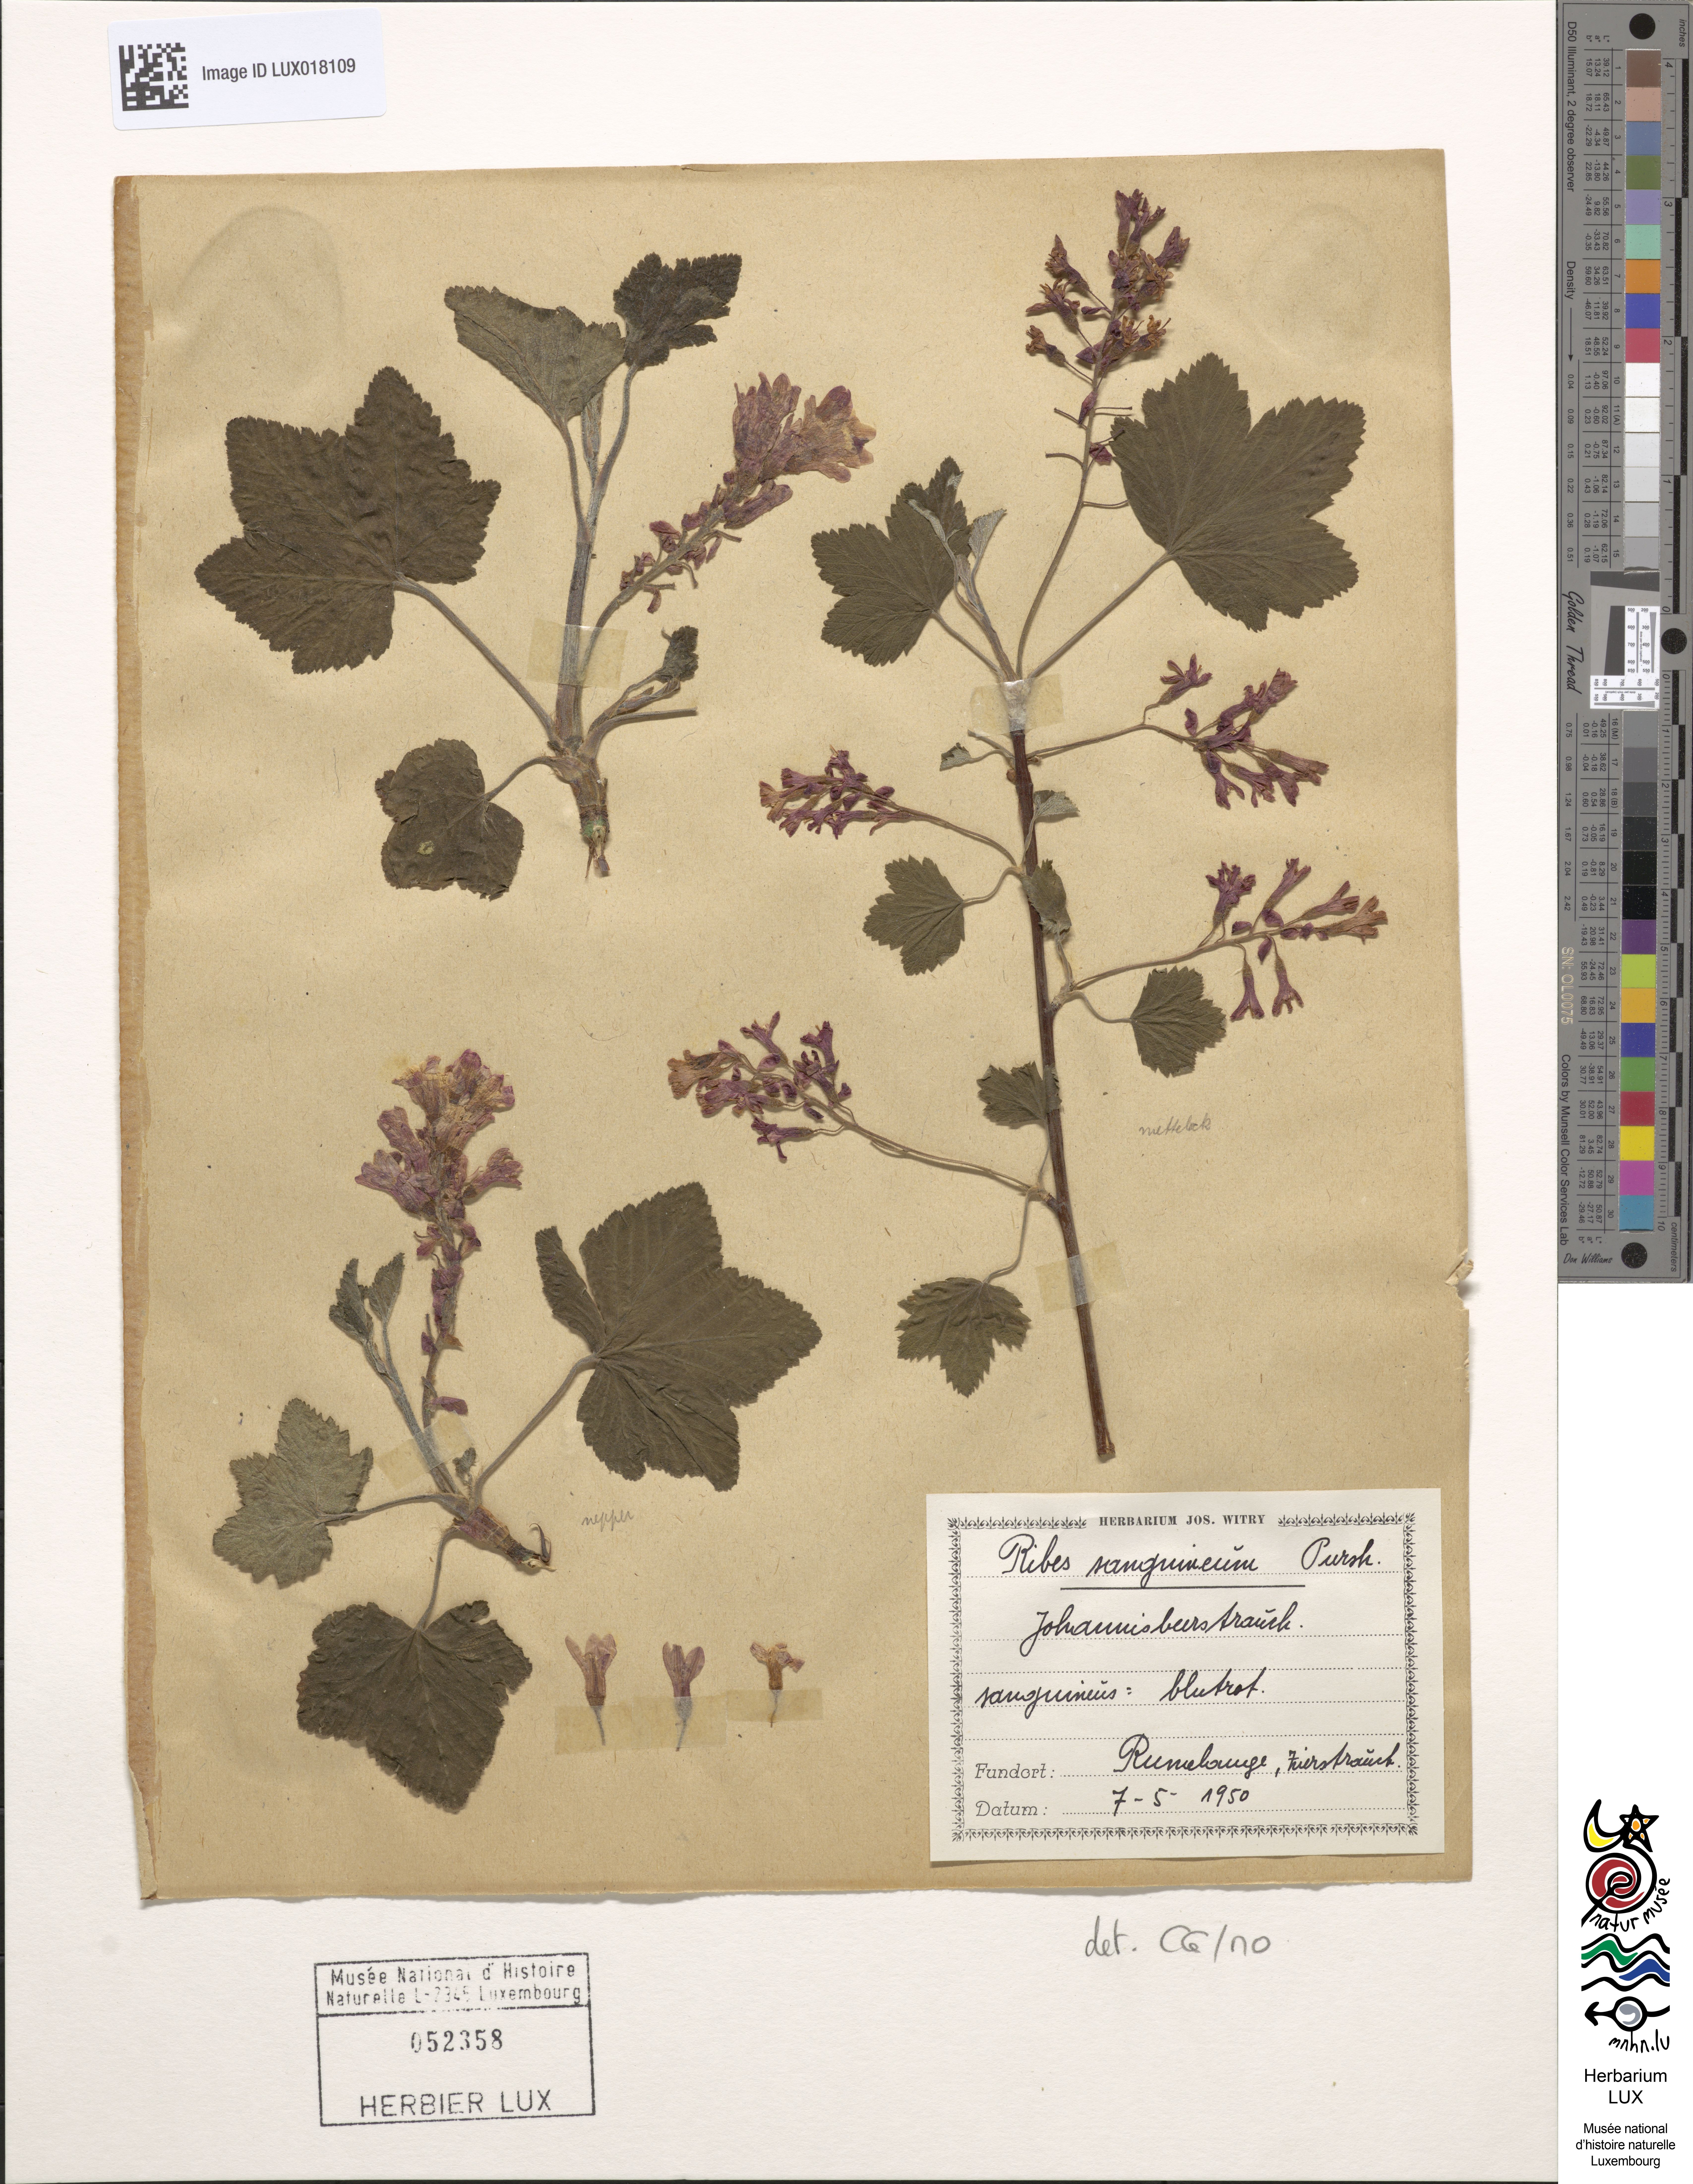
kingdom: Plantae
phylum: Tracheophyta
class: Magnoliopsida
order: Saxifragales
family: Grossulariaceae
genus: Ribes
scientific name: Ribes sanguineum
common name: Flowering currant
